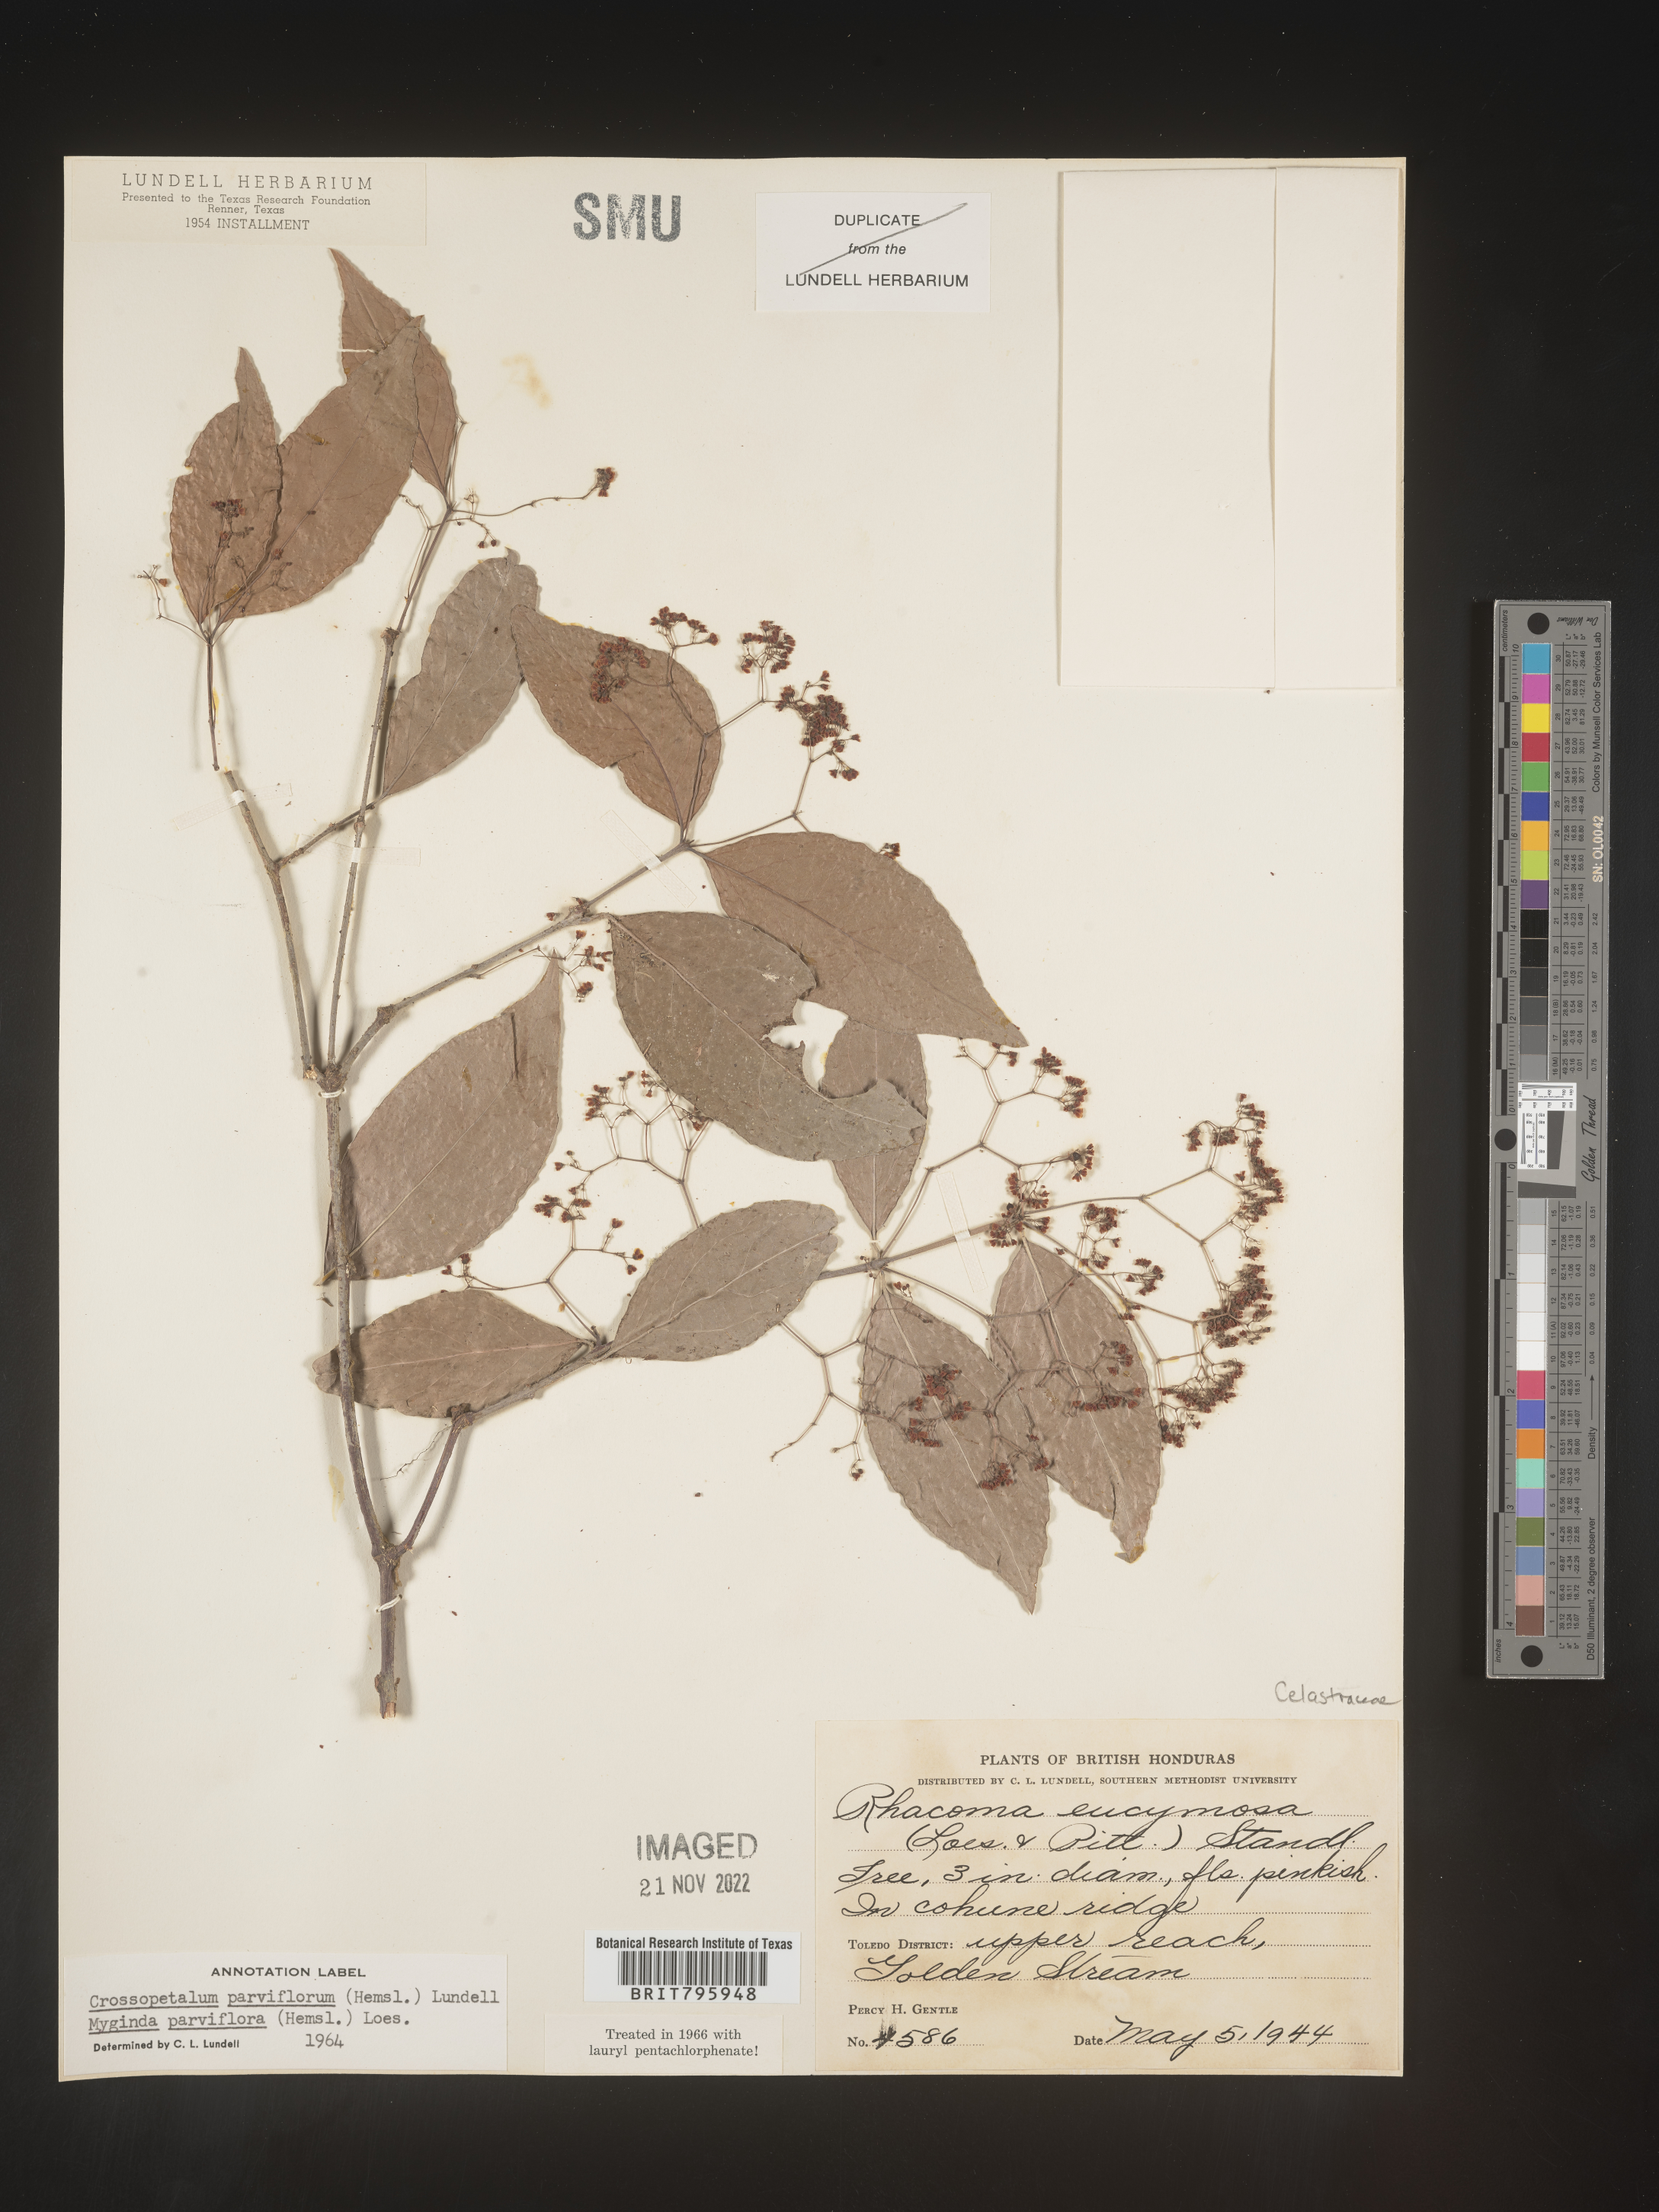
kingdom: Plantae
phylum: Tracheophyta
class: Magnoliopsida
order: Celastrales
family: Celastraceae
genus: Crossopetalum
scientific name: Crossopetalum parviflorum
